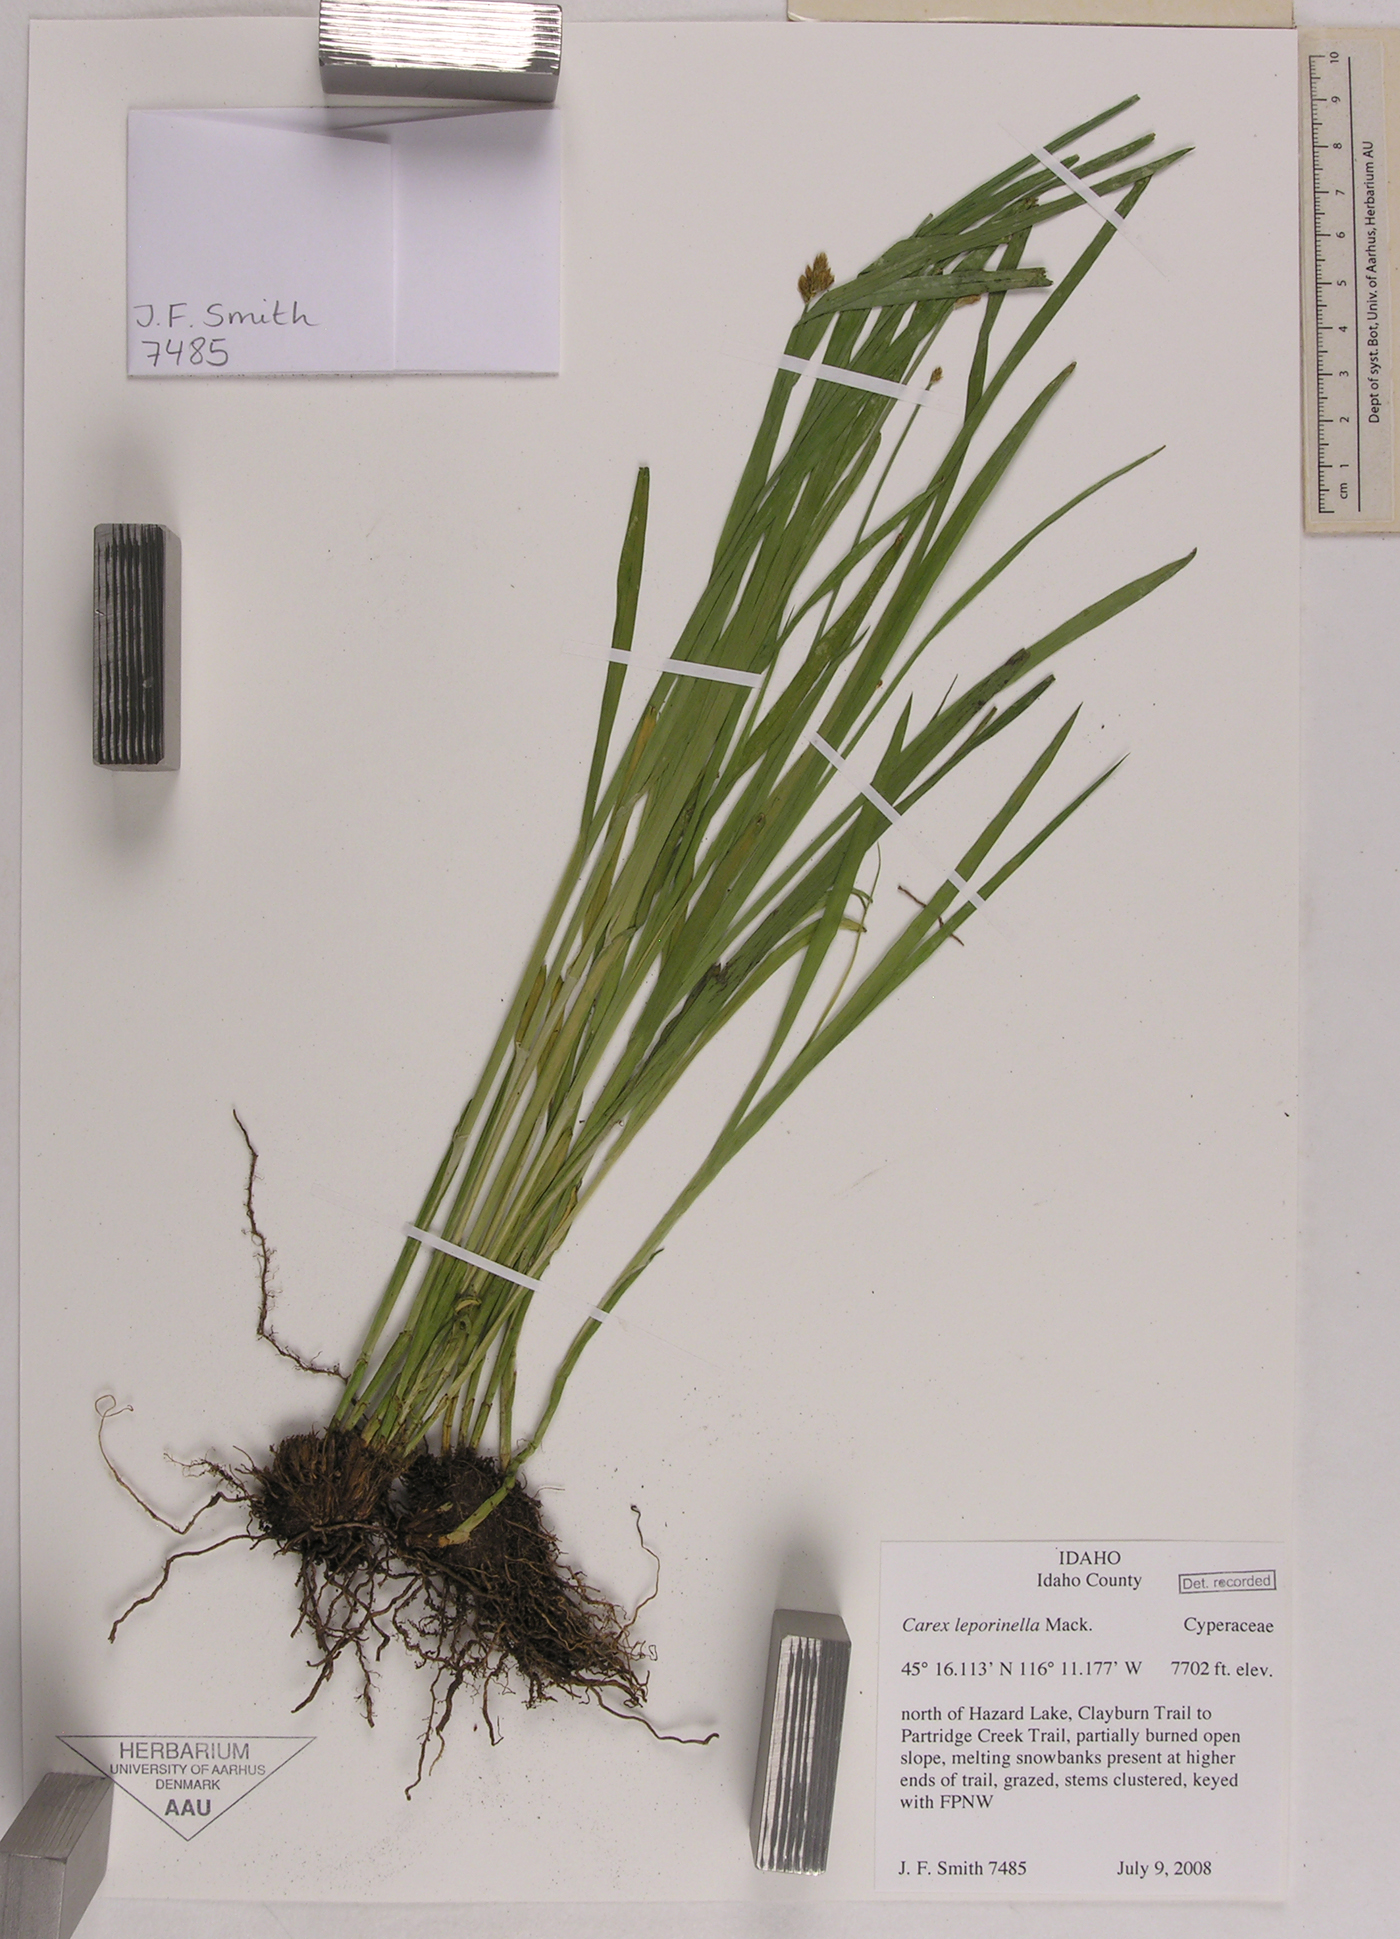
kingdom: Plantae
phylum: Tracheophyta
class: Liliopsida
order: Poales
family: Cyperaceae
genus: Carex
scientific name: Carex leporinella
